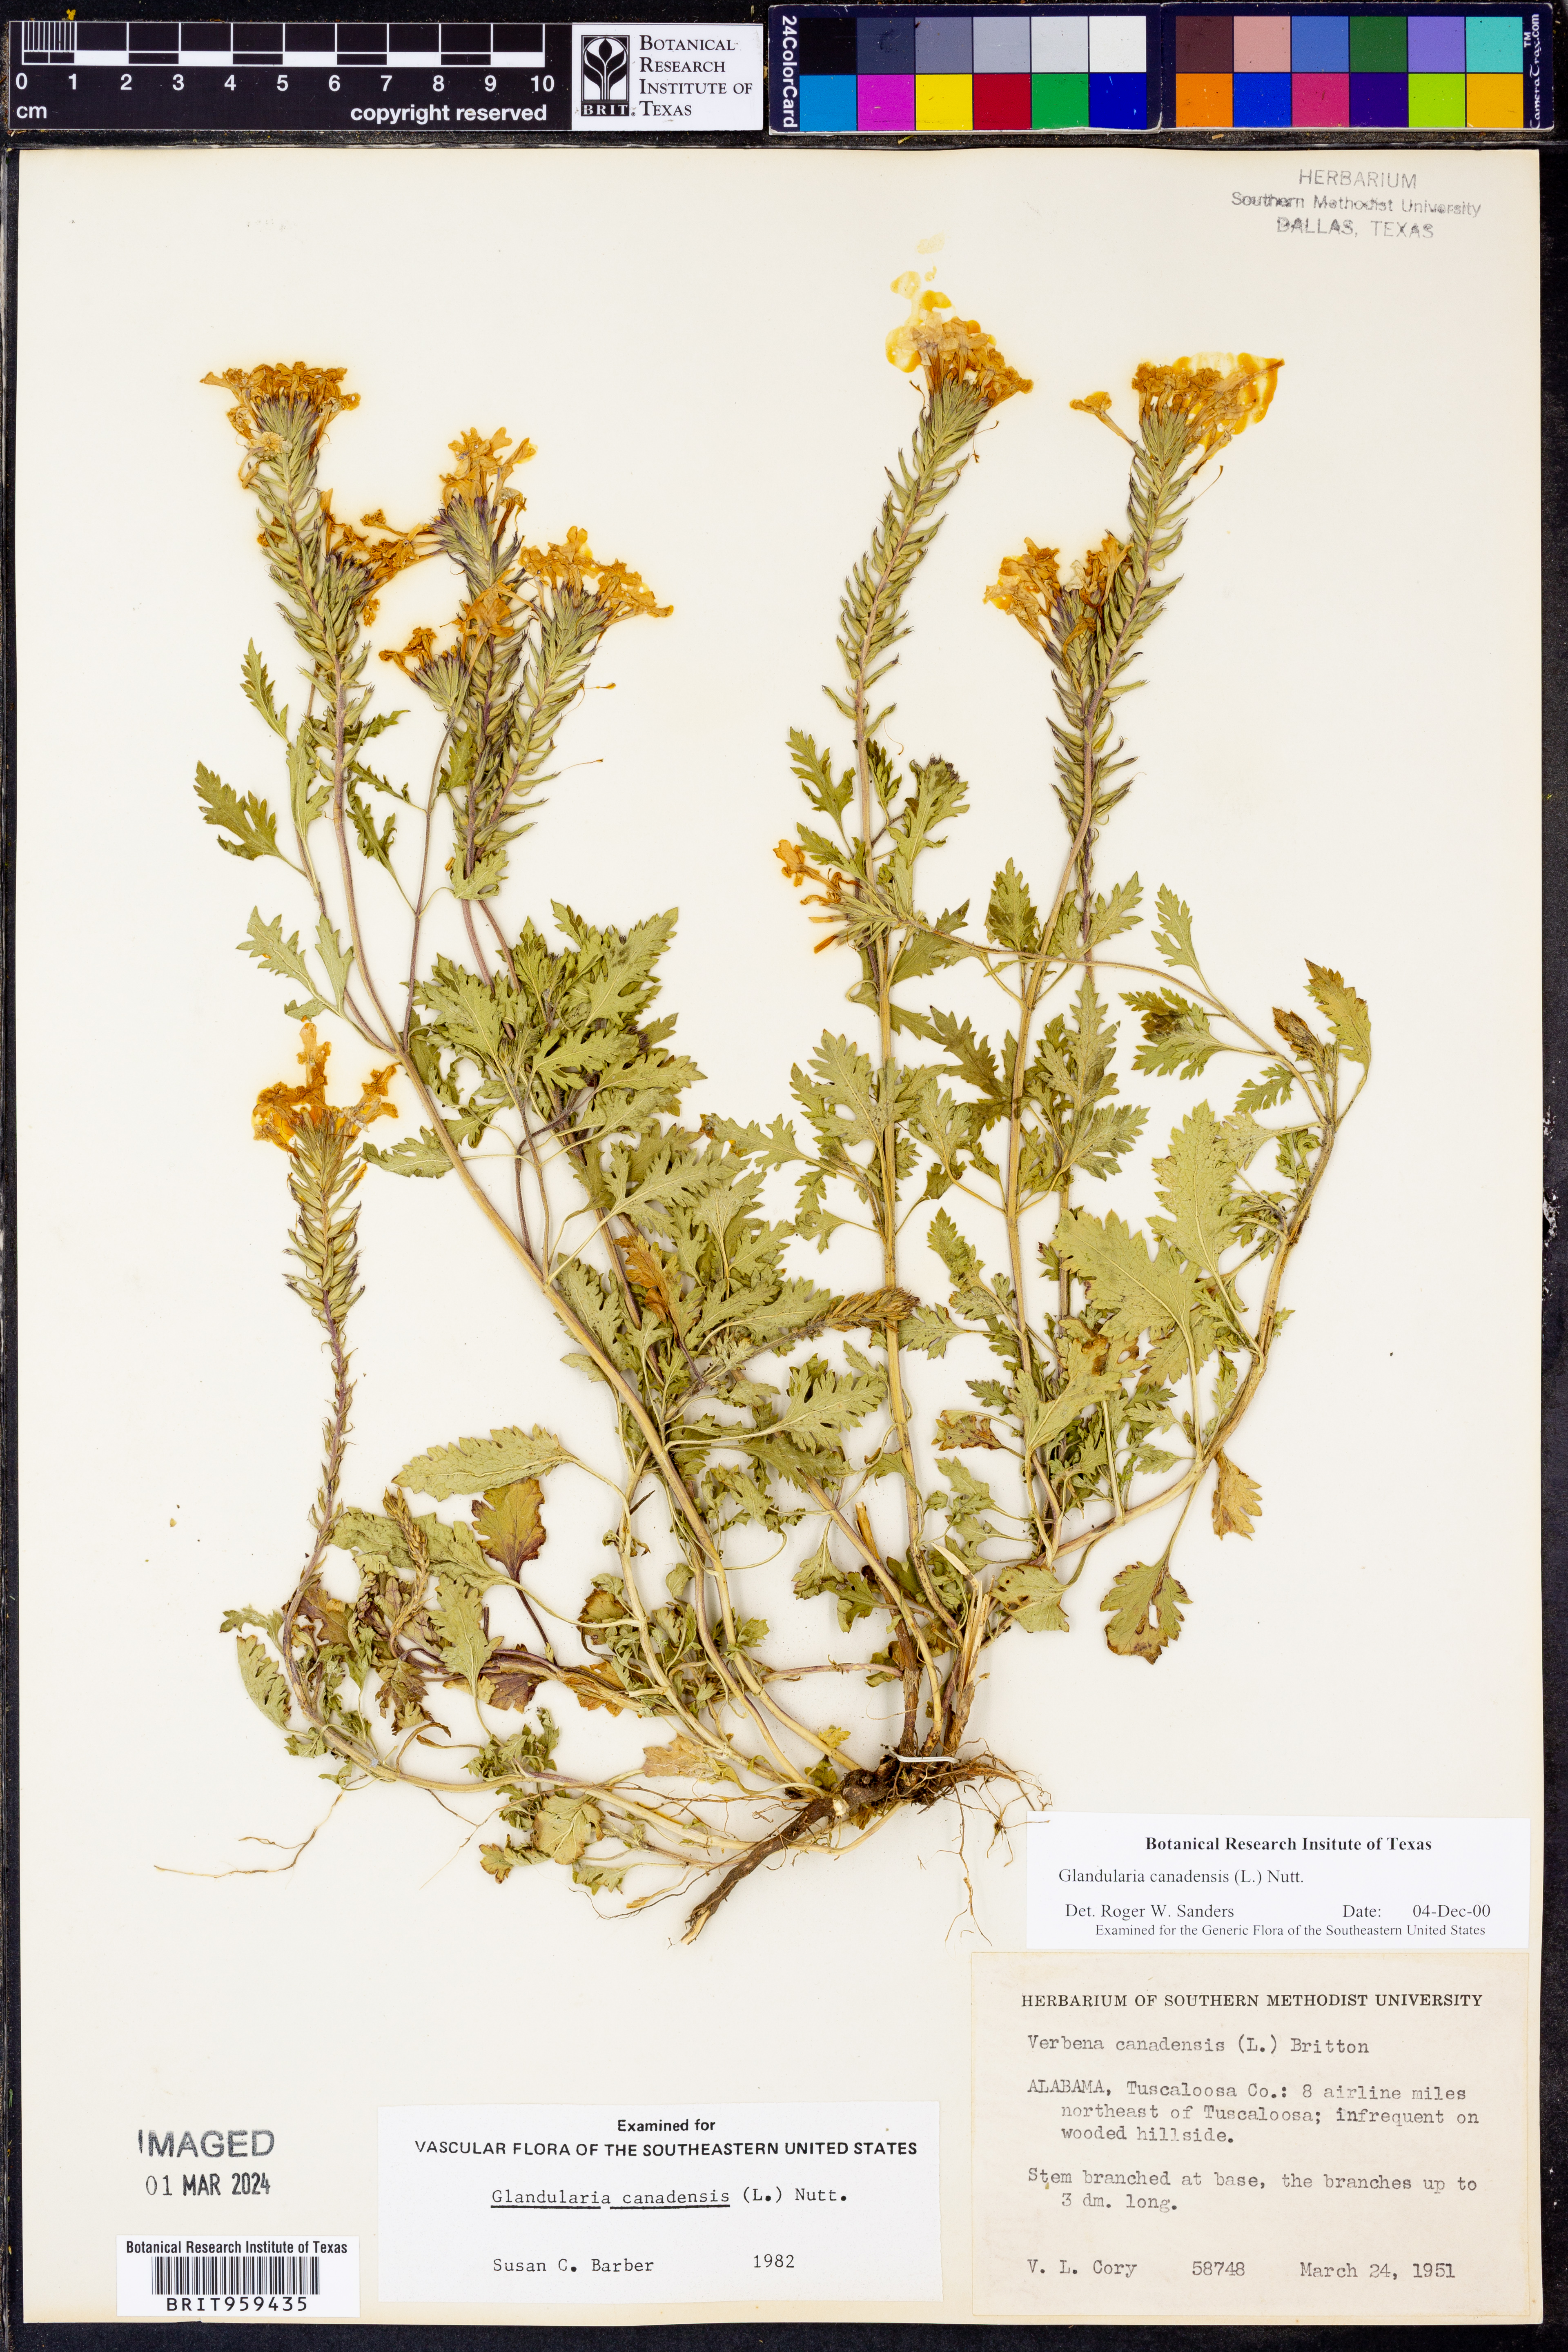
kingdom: Plantae
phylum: Tracheophyta
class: Magnoliopsida
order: Lamiales
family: Verbenaceae
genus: Verbena
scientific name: Verbena canadensis
